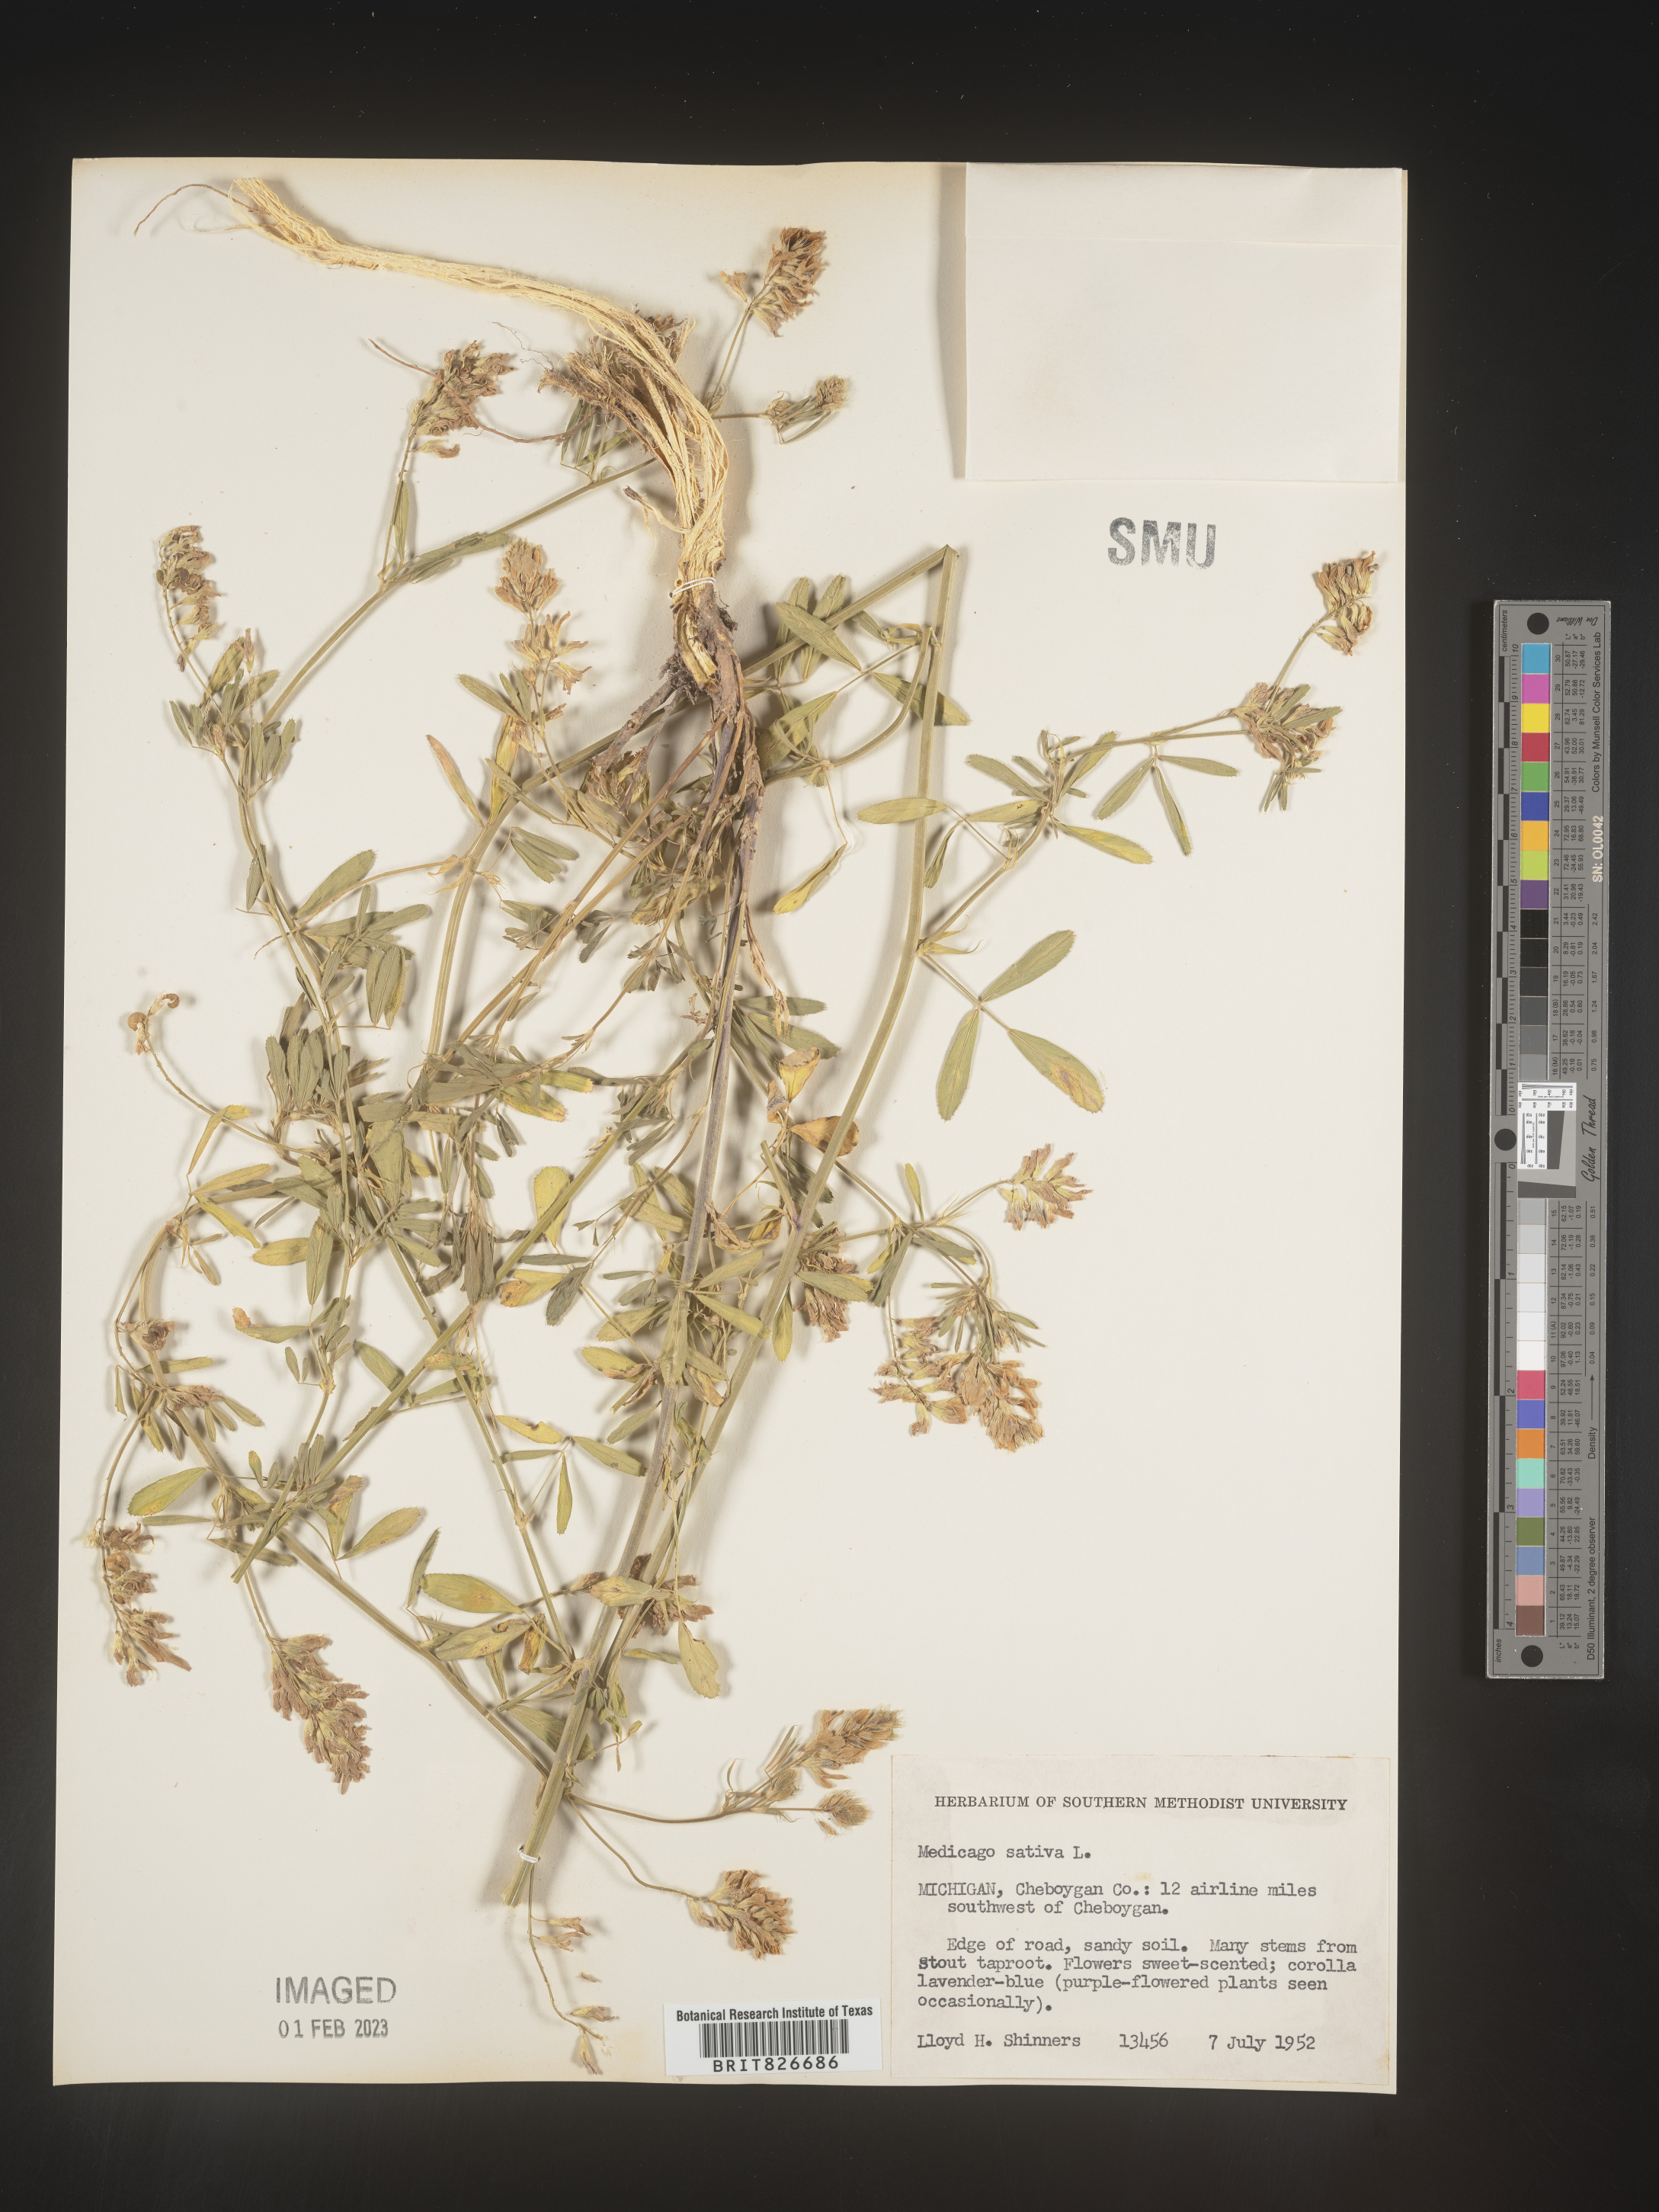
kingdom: Plantae
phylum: Tracheophyta
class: Magnoliopsida
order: Fabales
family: Fabaceae
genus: Medicago
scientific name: Medicago sativa
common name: Alfalfa
